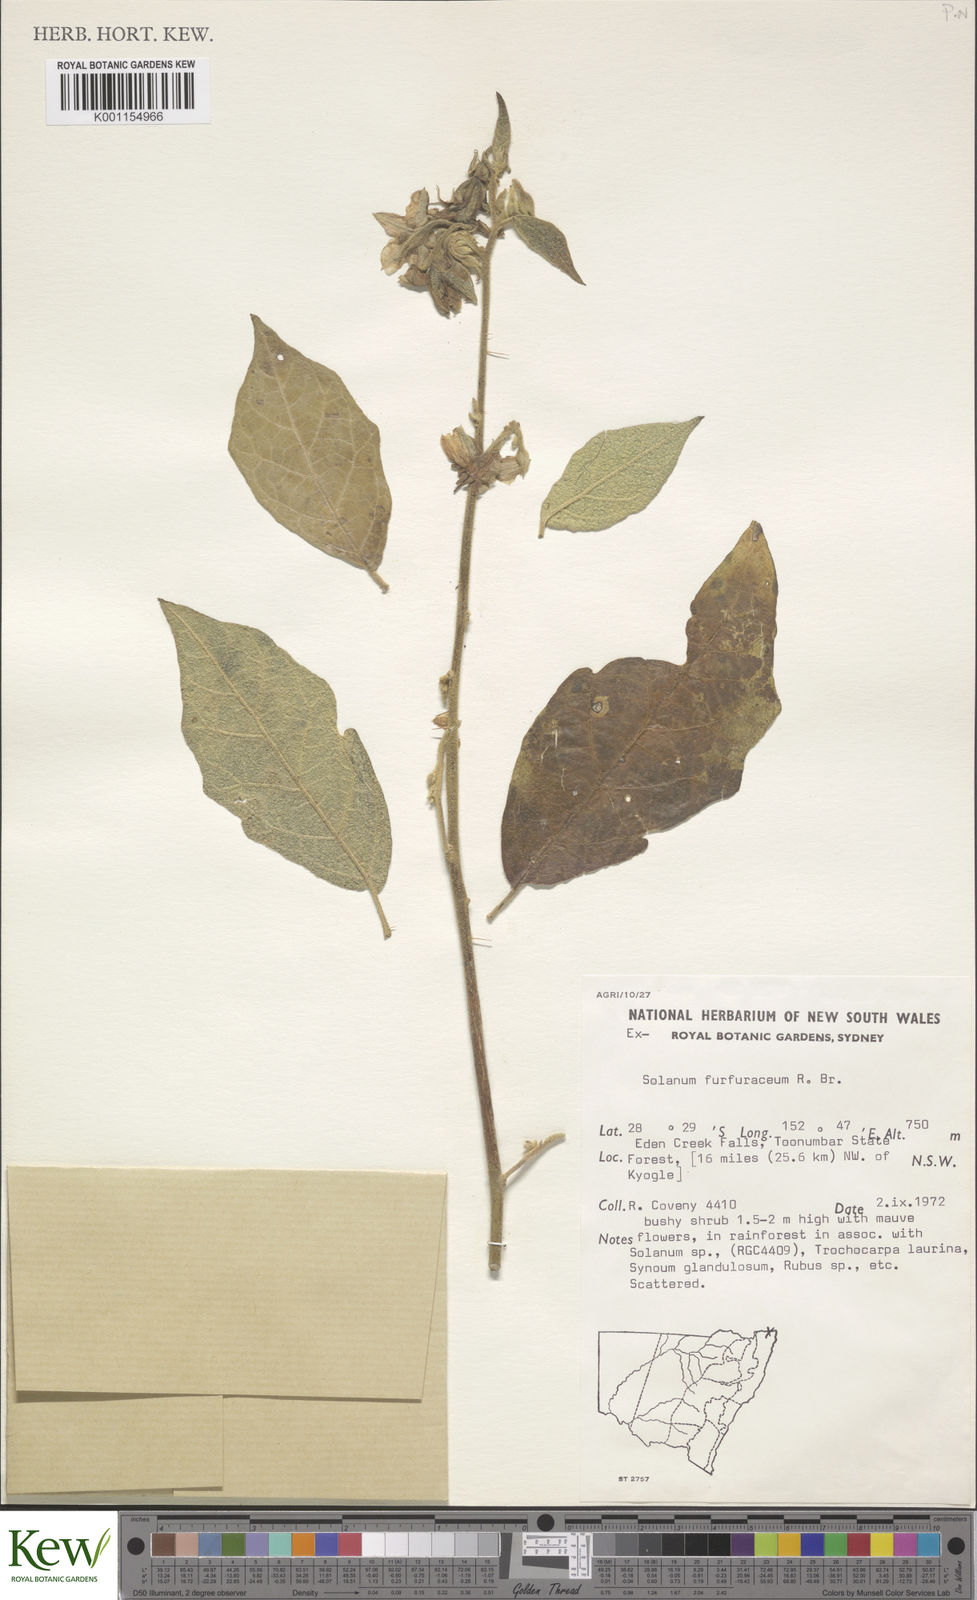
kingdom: Plantae
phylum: Tracheophyta
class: Magnoliopsida
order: Solanales
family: Solanaceae
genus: Solanum
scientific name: Solanum furfuraceum
